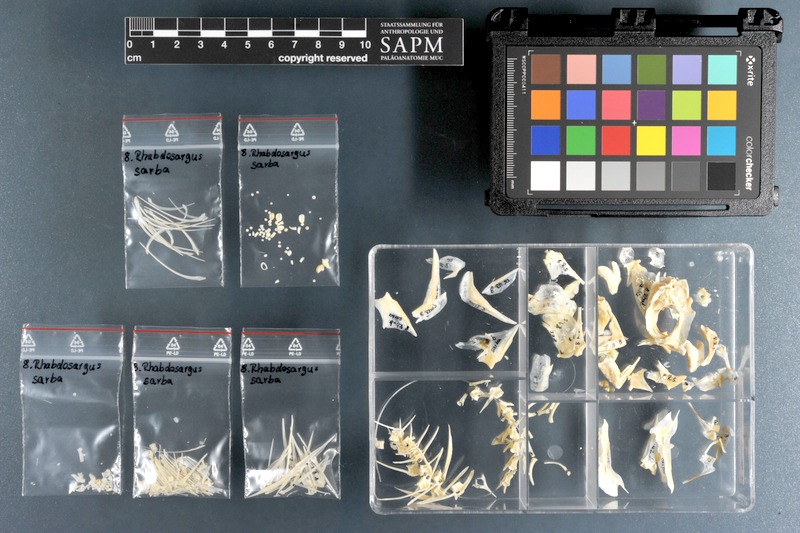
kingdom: Animalia
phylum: Chordata
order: Perciformes
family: Sparidae
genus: Rhabdosargus
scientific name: Rhabdosargus sarba
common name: Goldlined seabream
